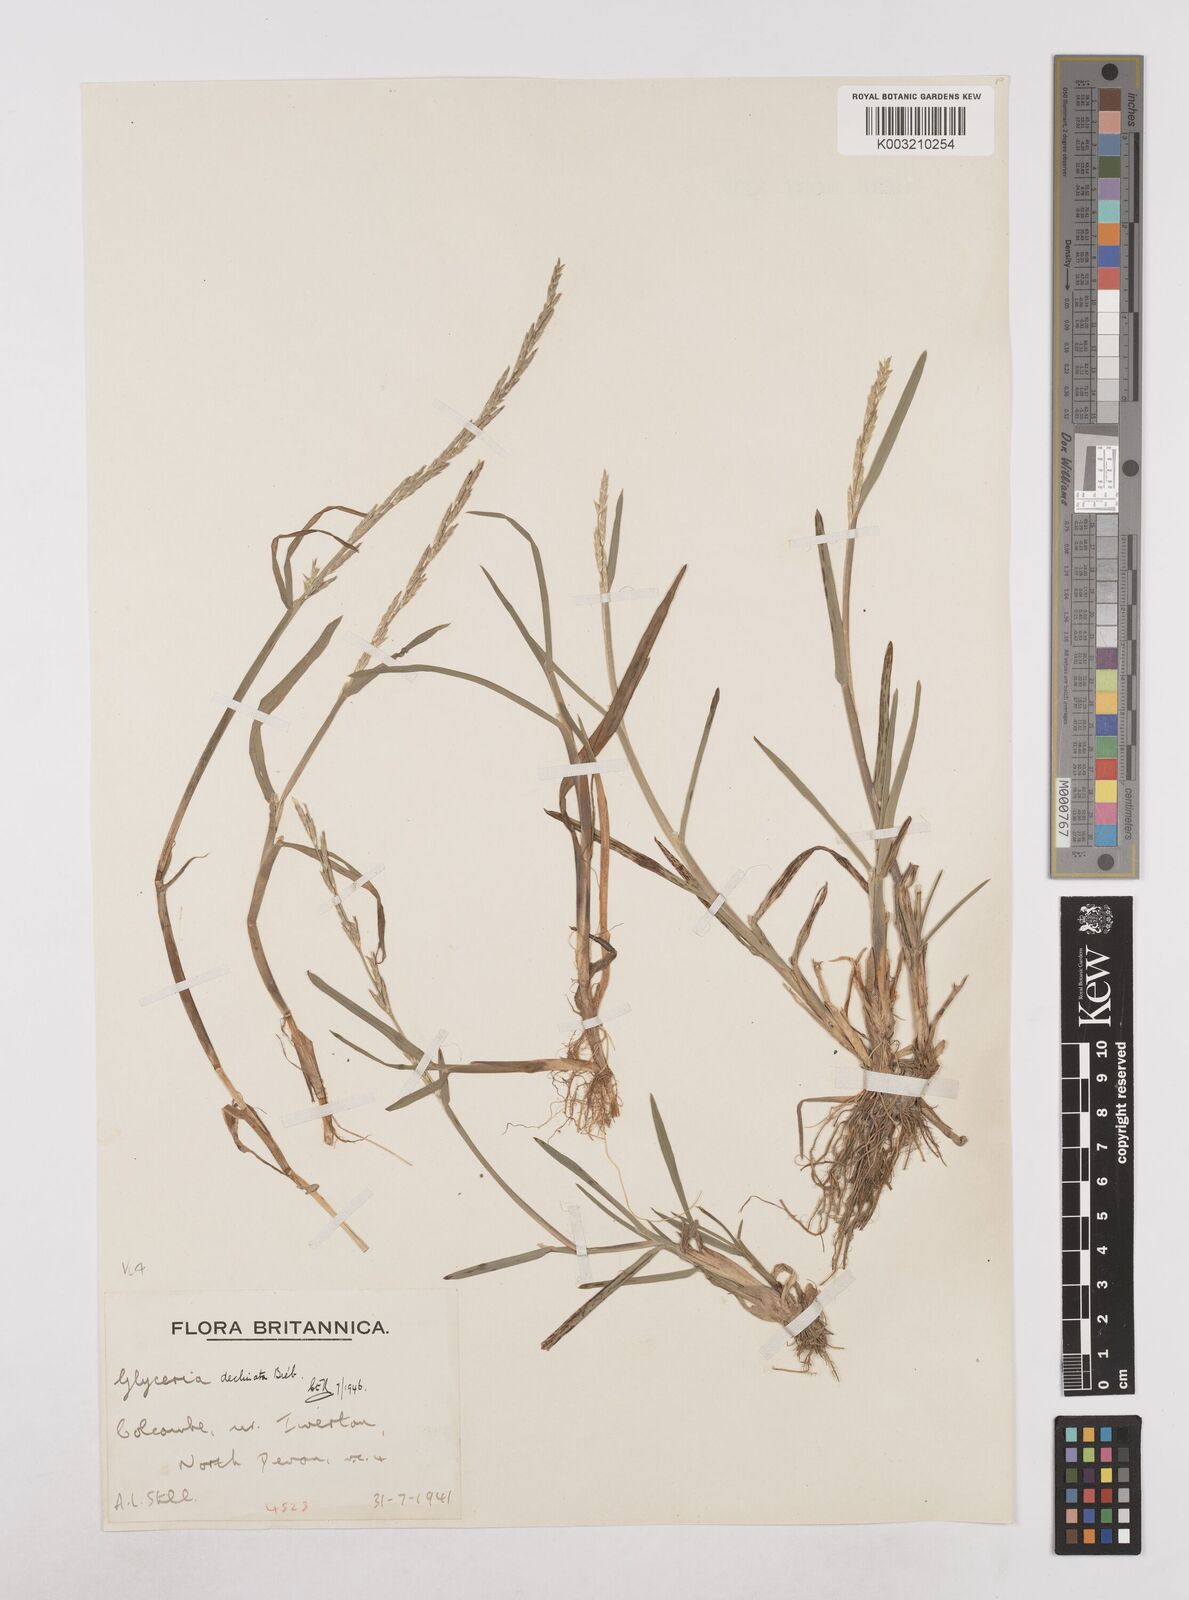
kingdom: Plantae
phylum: Tracheophyta
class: Liliopsida
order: Poales
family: Poaceae
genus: Glyceria
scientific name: Glyceria declinata
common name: Small sweet-grass
